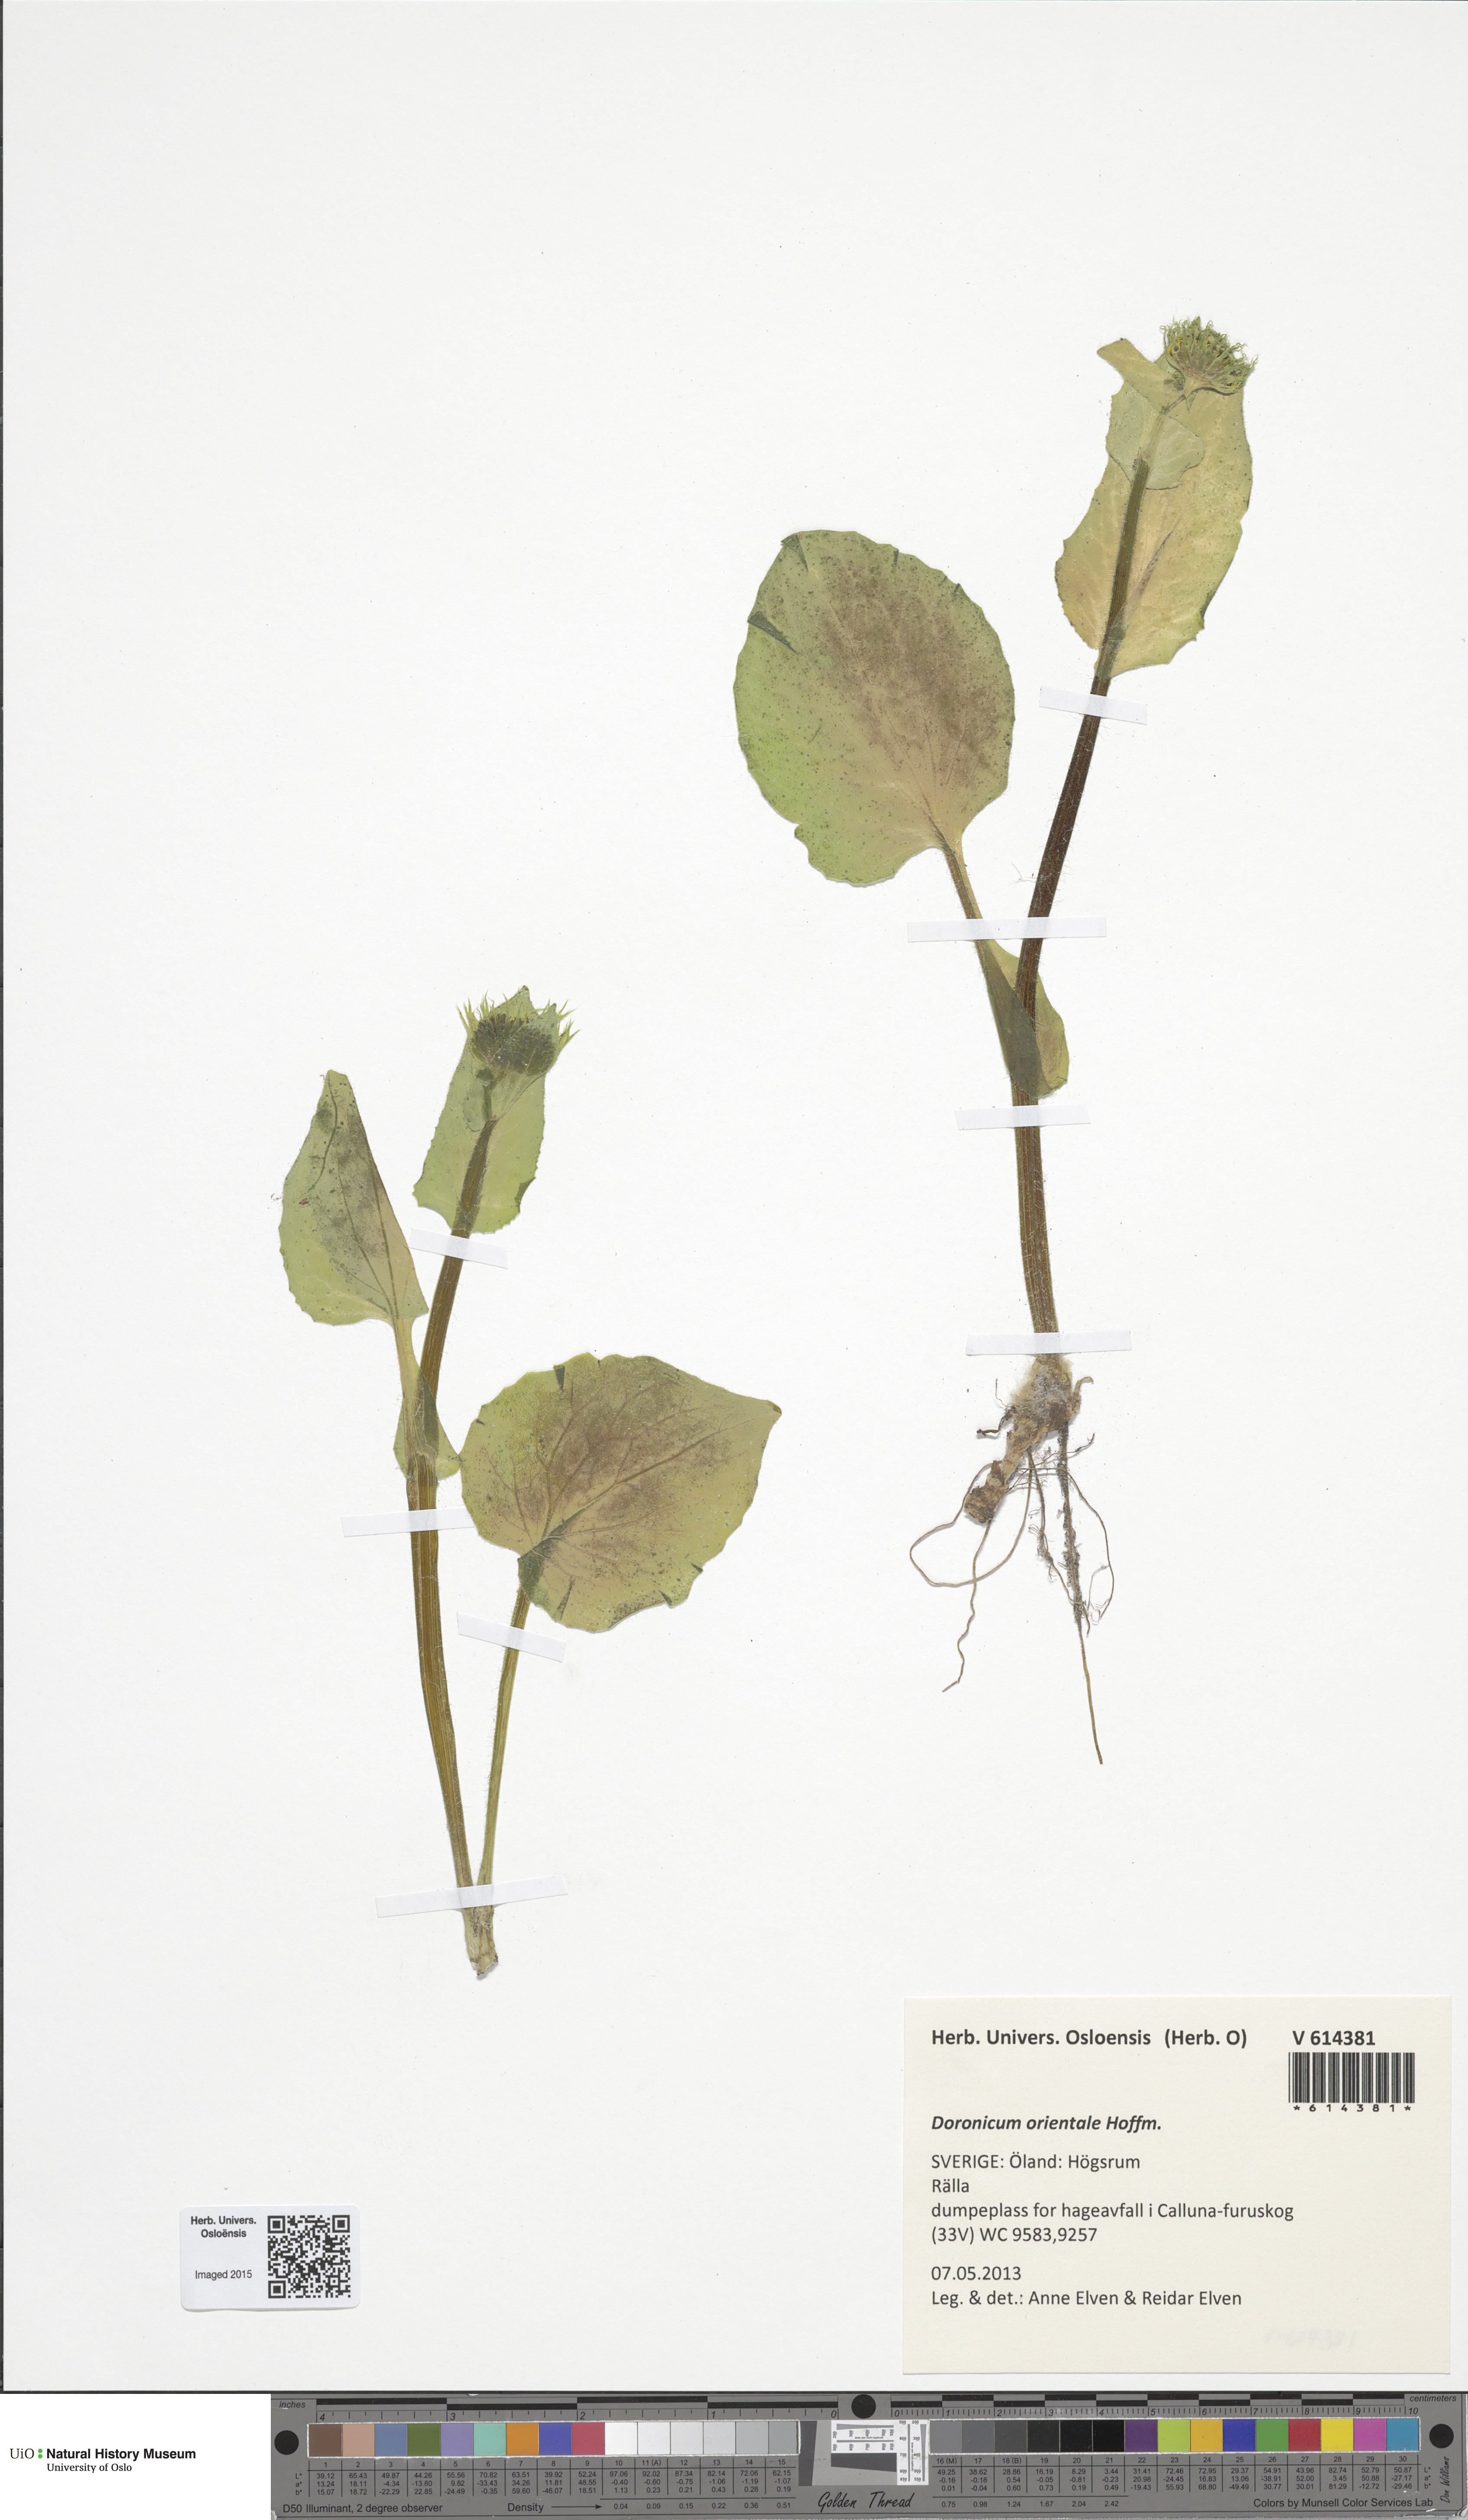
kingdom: Plantae
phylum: Tracheophyta
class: Magnoliopsida
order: Asterales
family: Asteraceae
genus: Doronicum
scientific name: Doronicum orientale
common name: Oriental leopard's-bane
